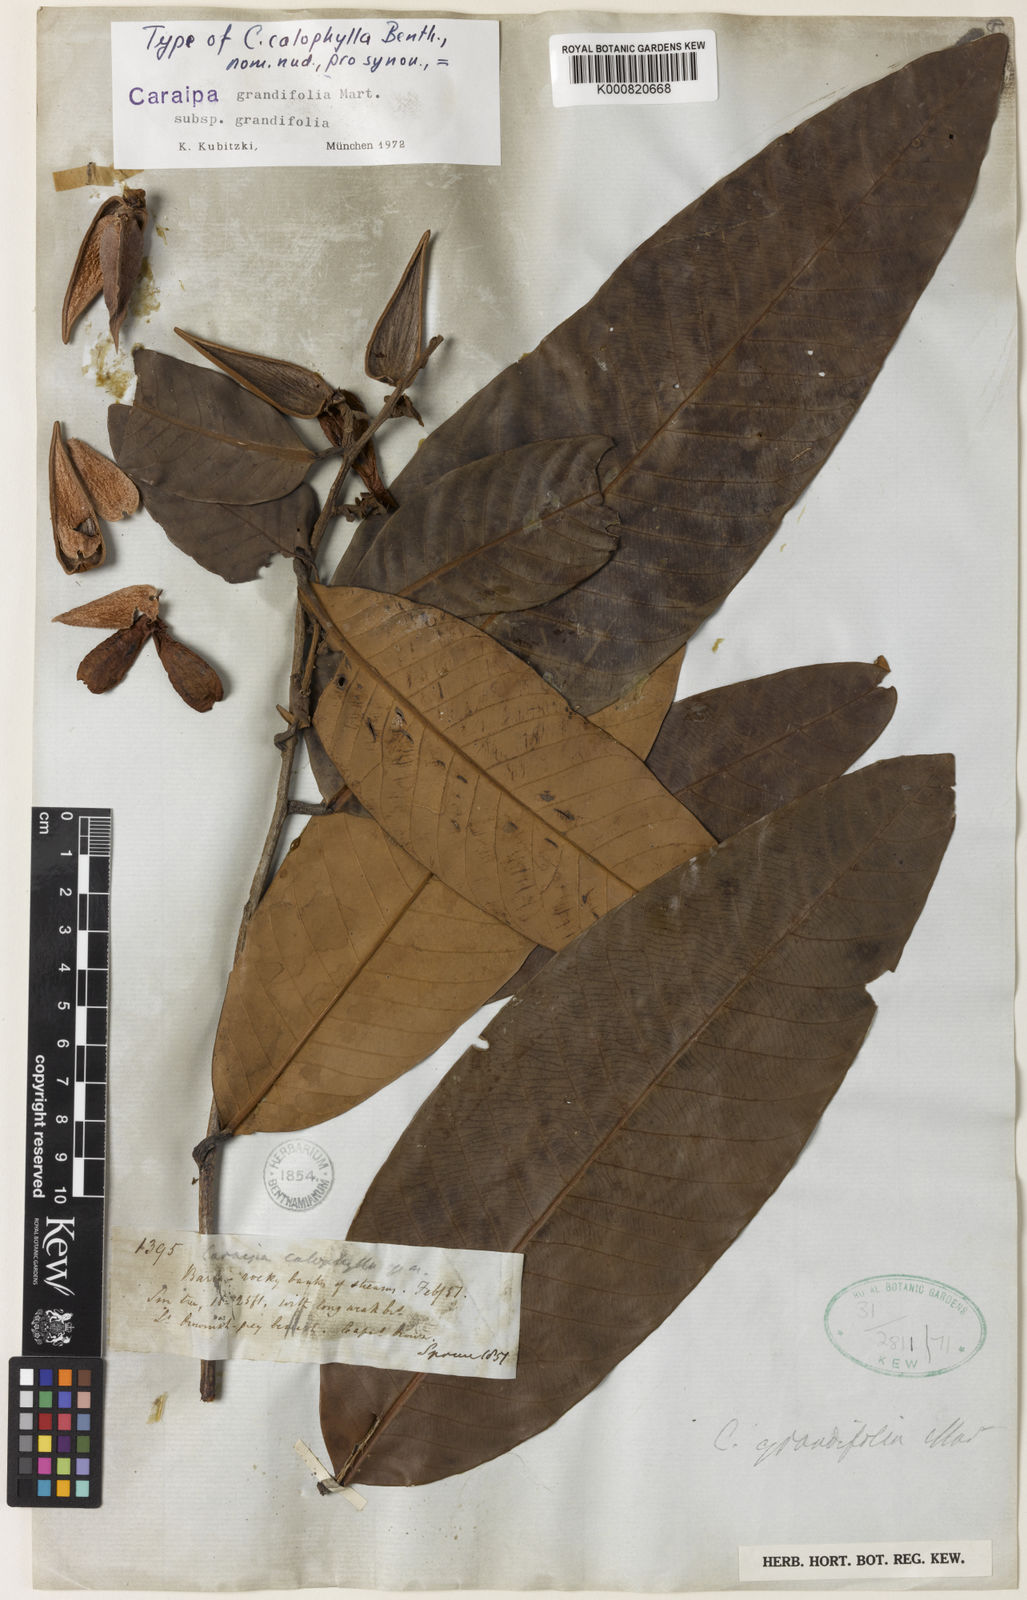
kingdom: Plantae
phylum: Tracheophyta
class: Magnoliopsida
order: Malpighiales
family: Calophyllaceae
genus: Caraipa
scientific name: Caraipa grandifolia
